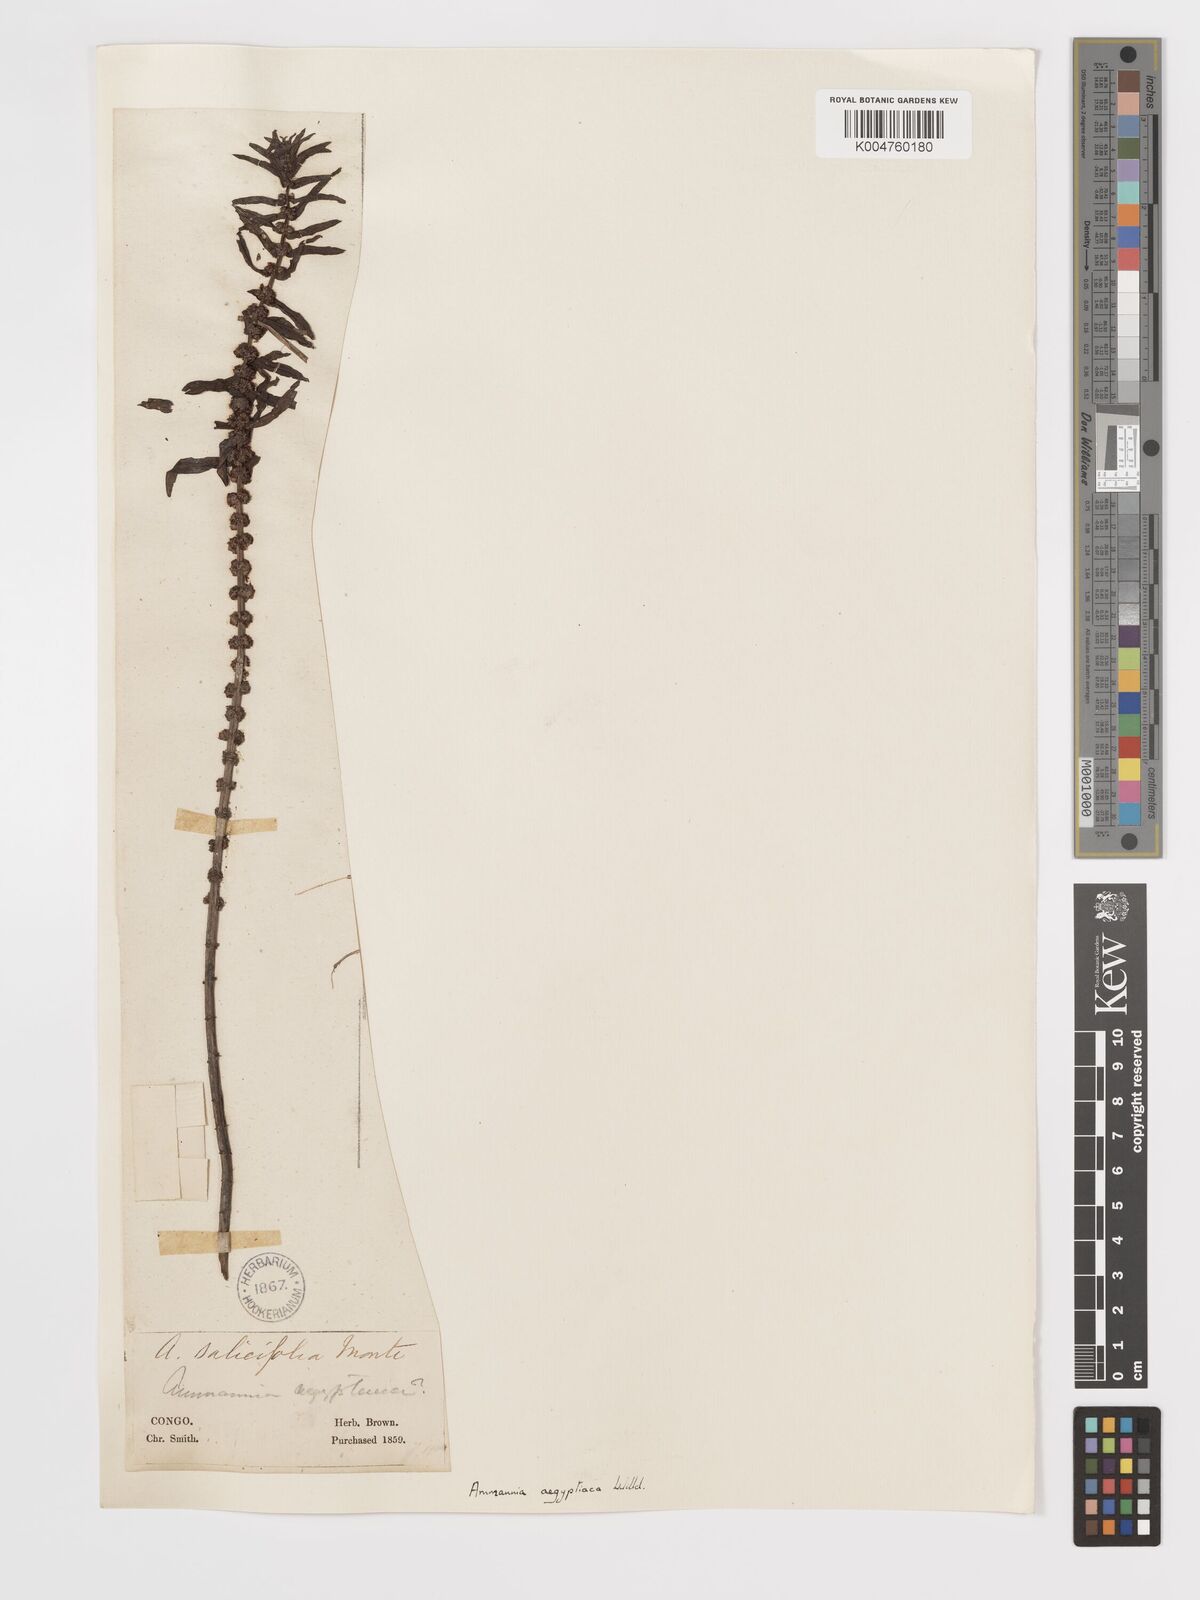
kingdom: Plantae
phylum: Tracheophyta
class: Magnoliopsida
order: Myrtales
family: Lythraceae
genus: Ammannia
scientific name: Ammannia
